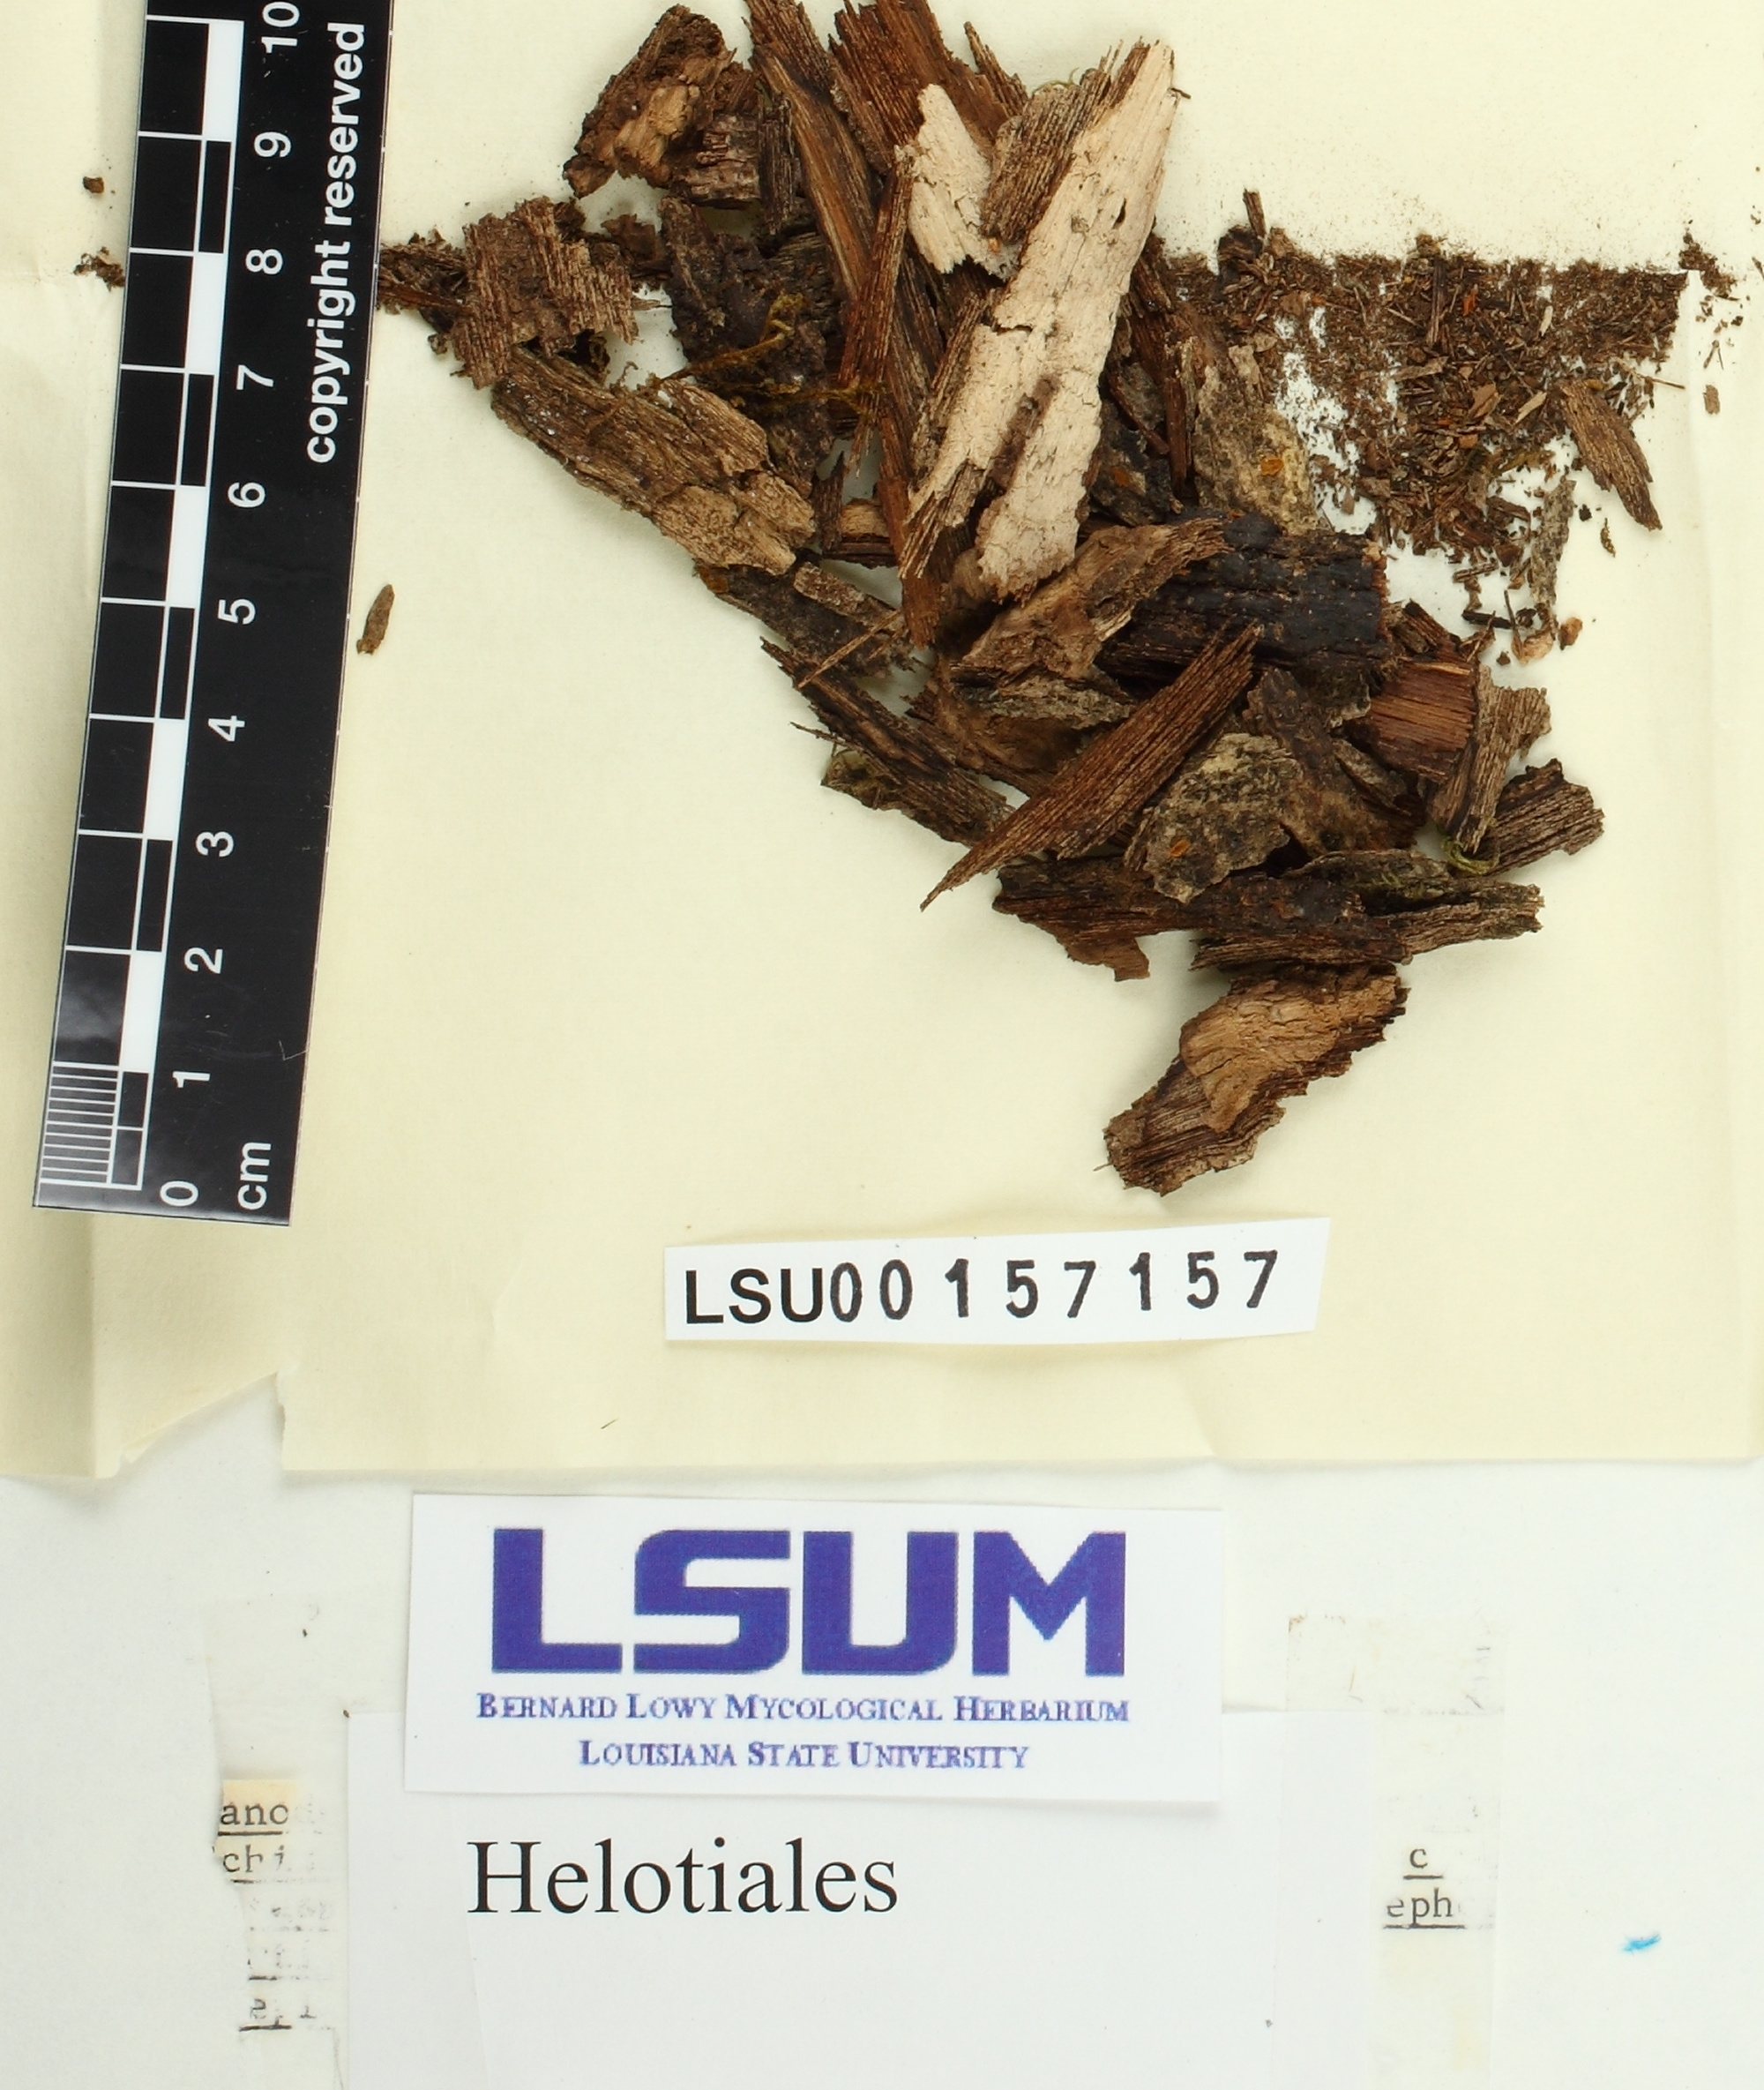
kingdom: Fungi
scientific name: Fungi
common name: Fungi
